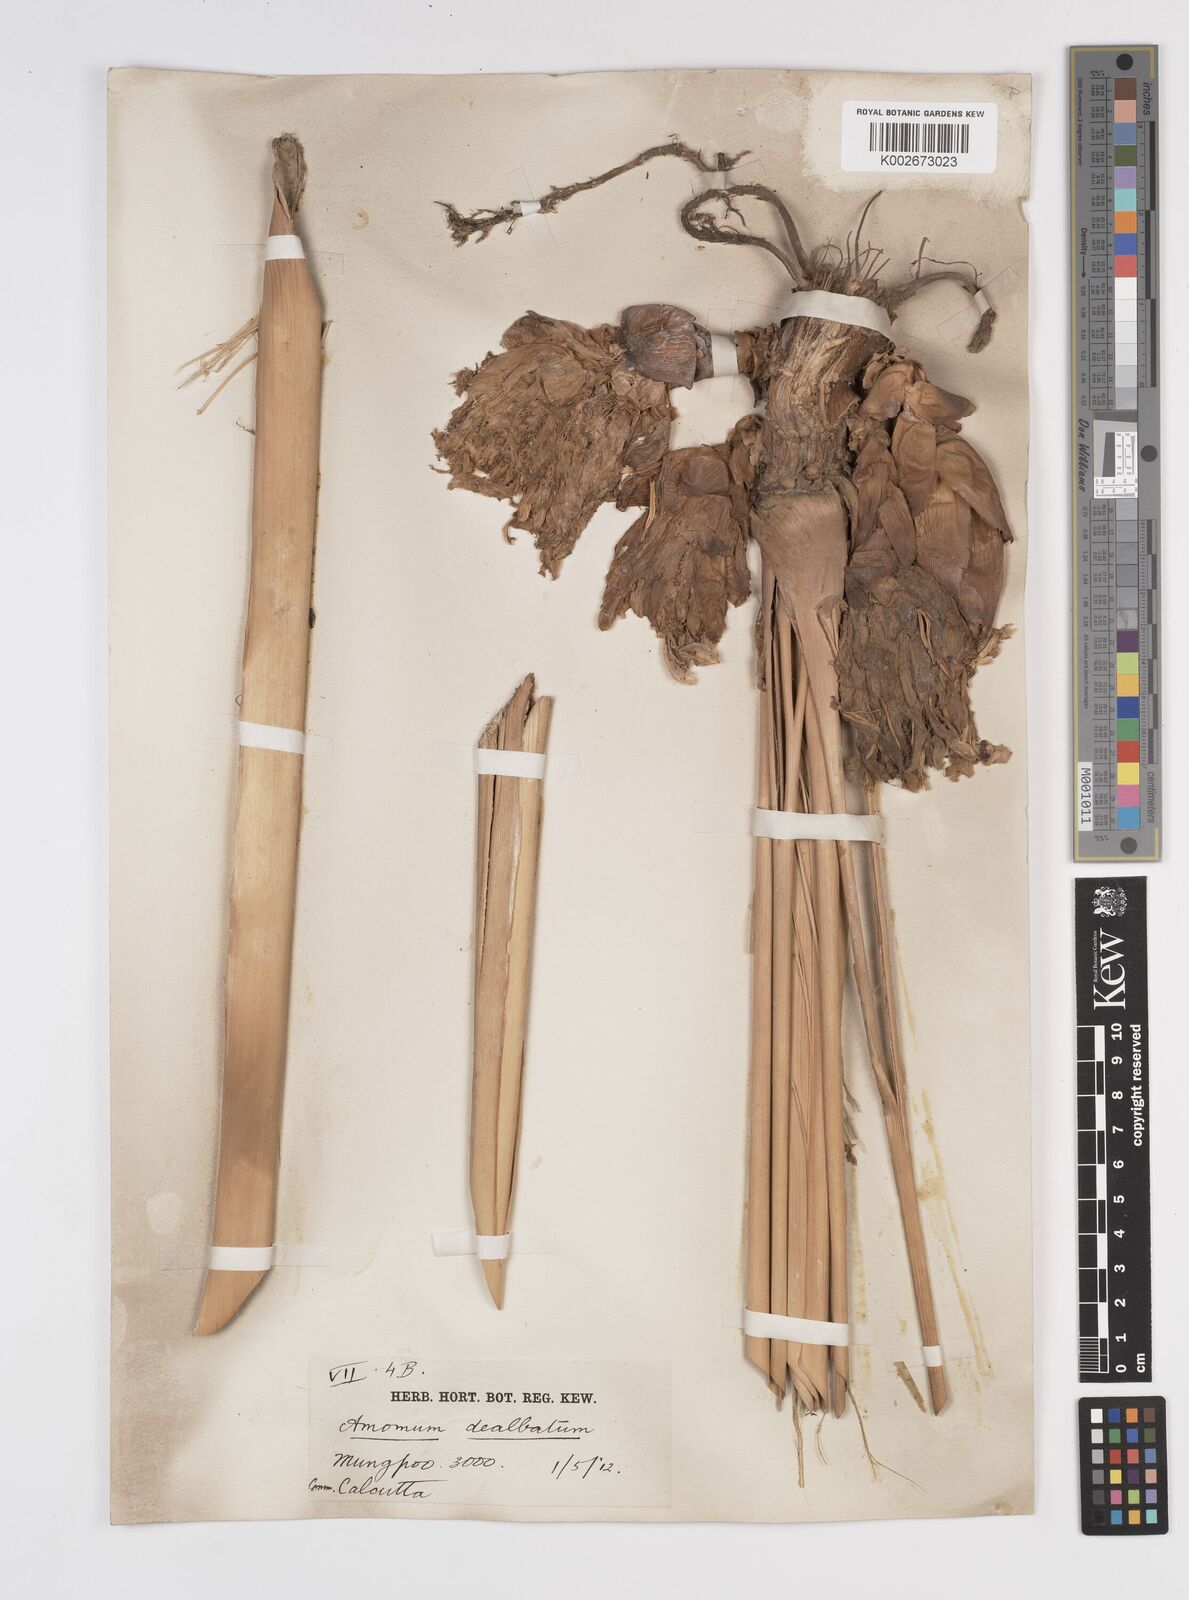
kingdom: Plantae
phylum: Tracheophyta
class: Liliopsida
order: Zingiberales
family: Zingiberaceae
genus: Amomum
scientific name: Amomum dealbatum
